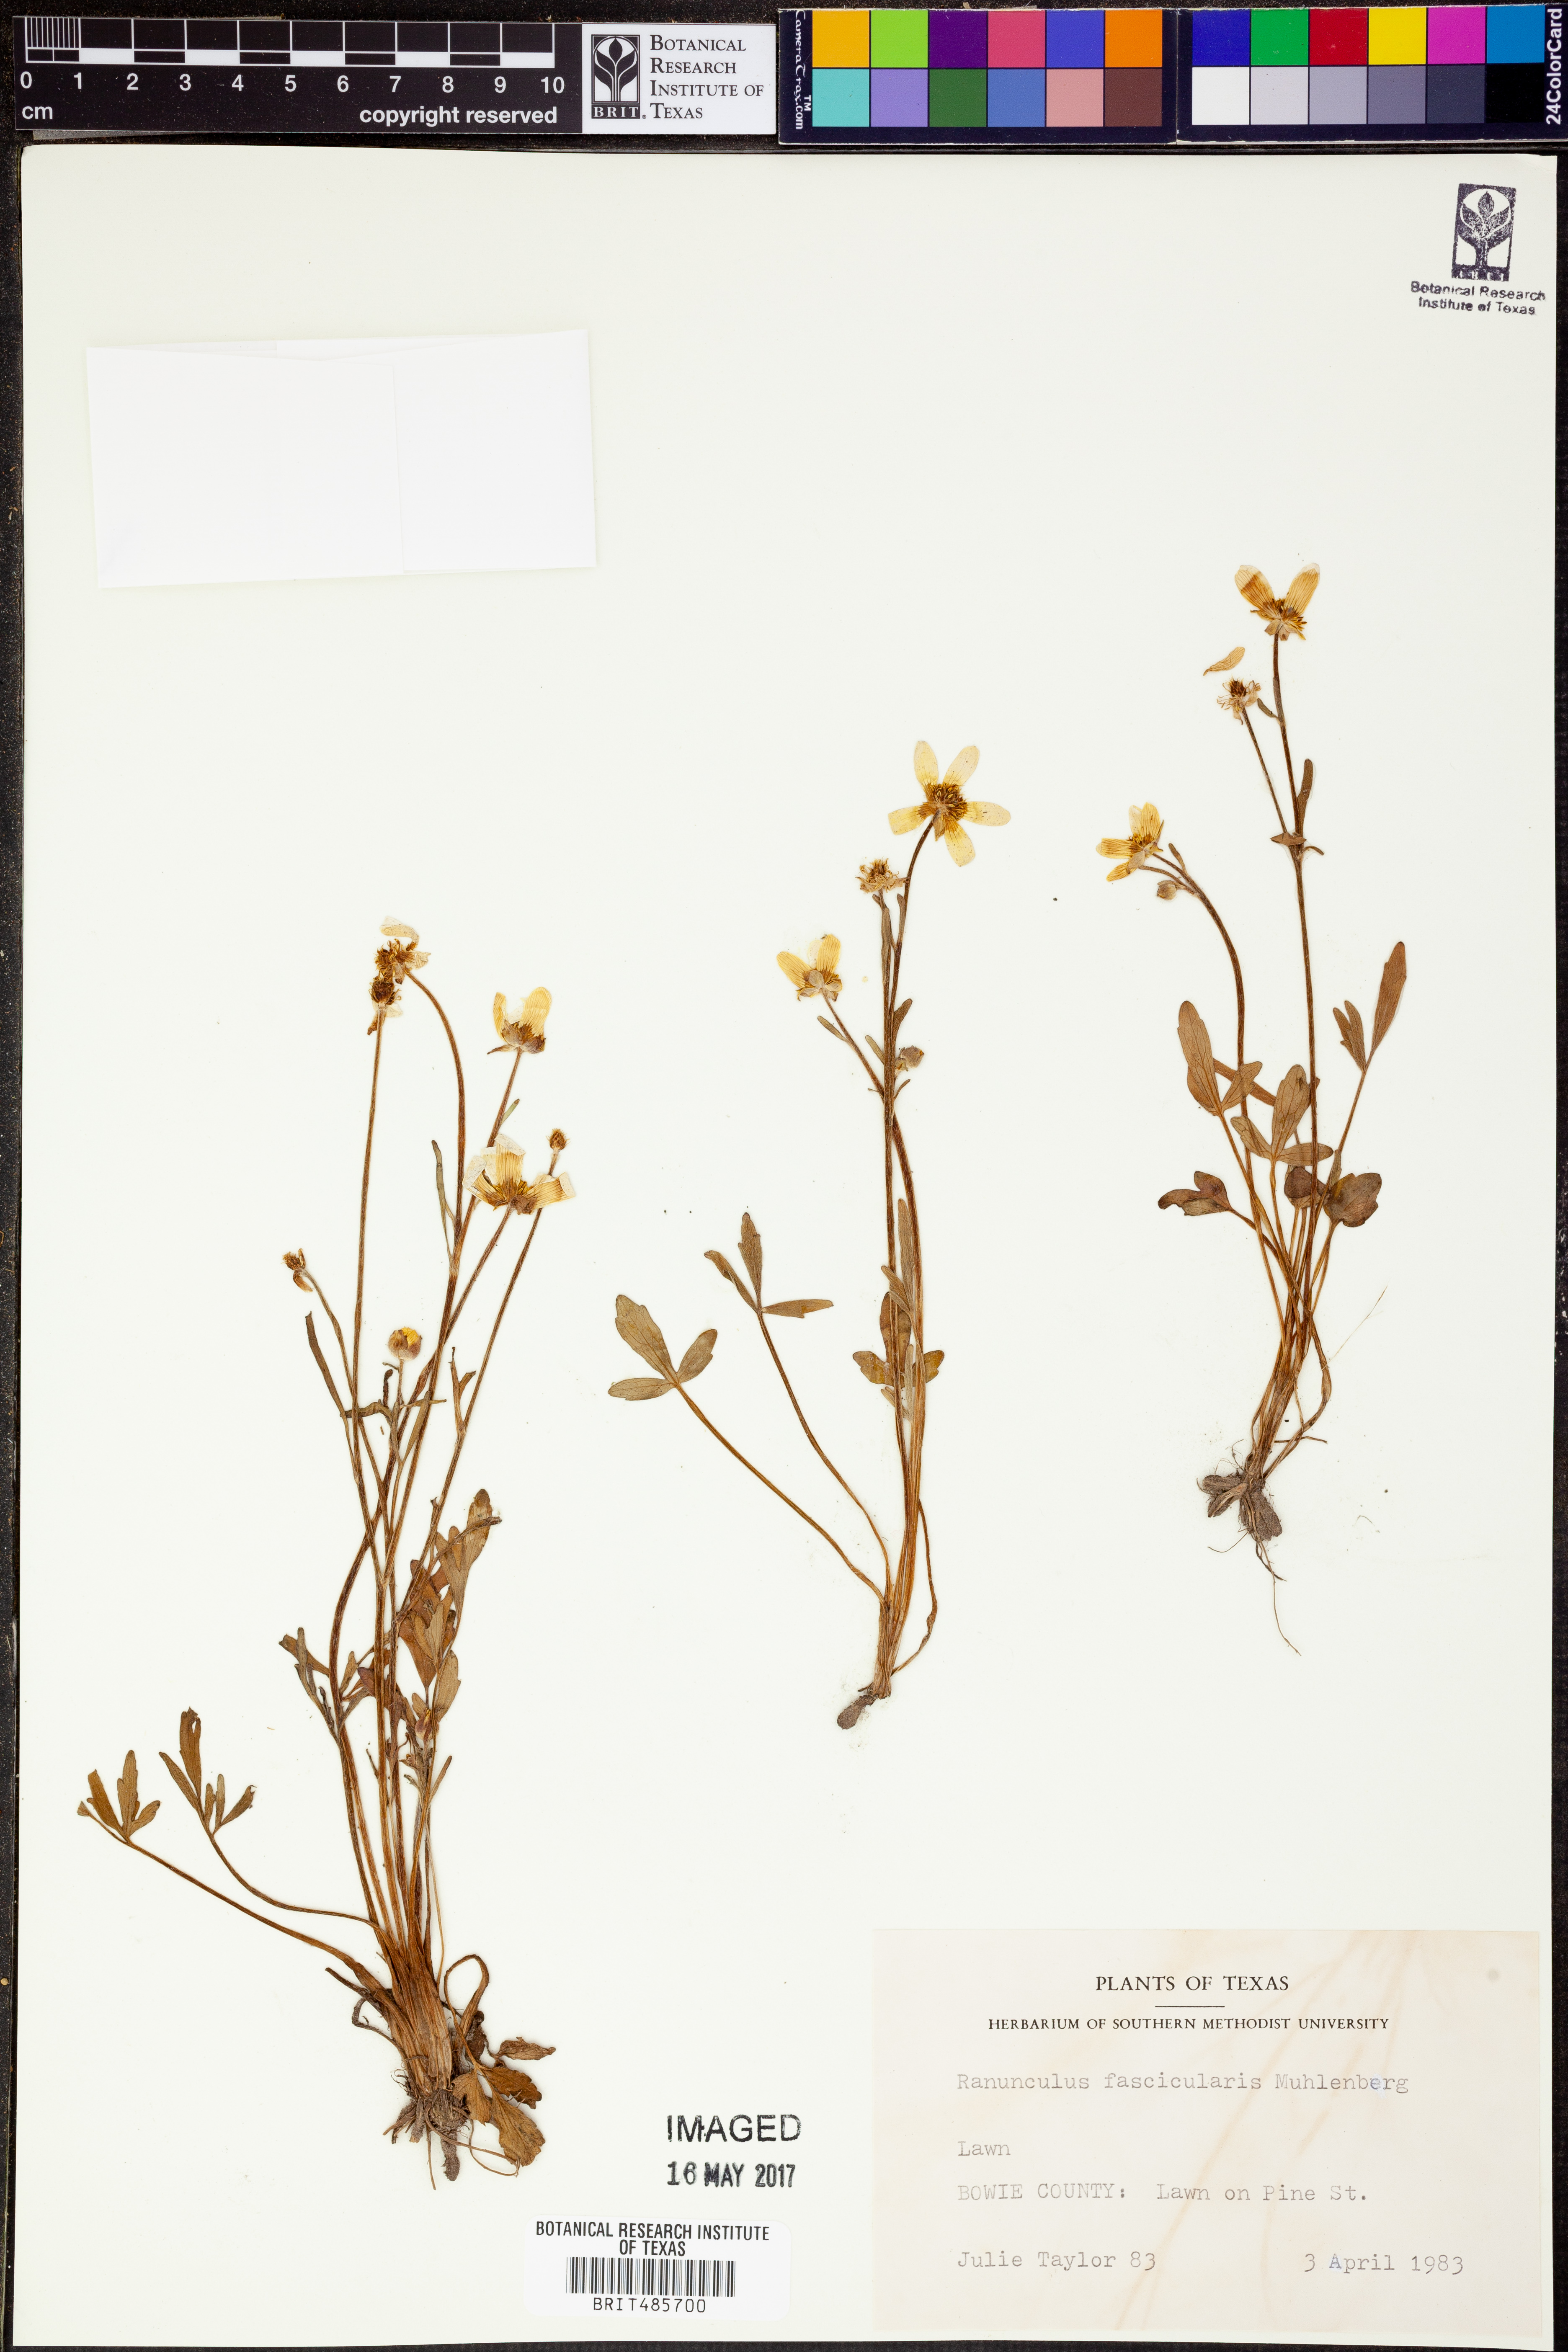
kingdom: Plantae
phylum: Tracheophyta
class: Magnoliopsida
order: Ranunculales
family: Ranunculaceae
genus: Ranunculus
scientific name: Ranunculus fascicularis
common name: Early buttercup
